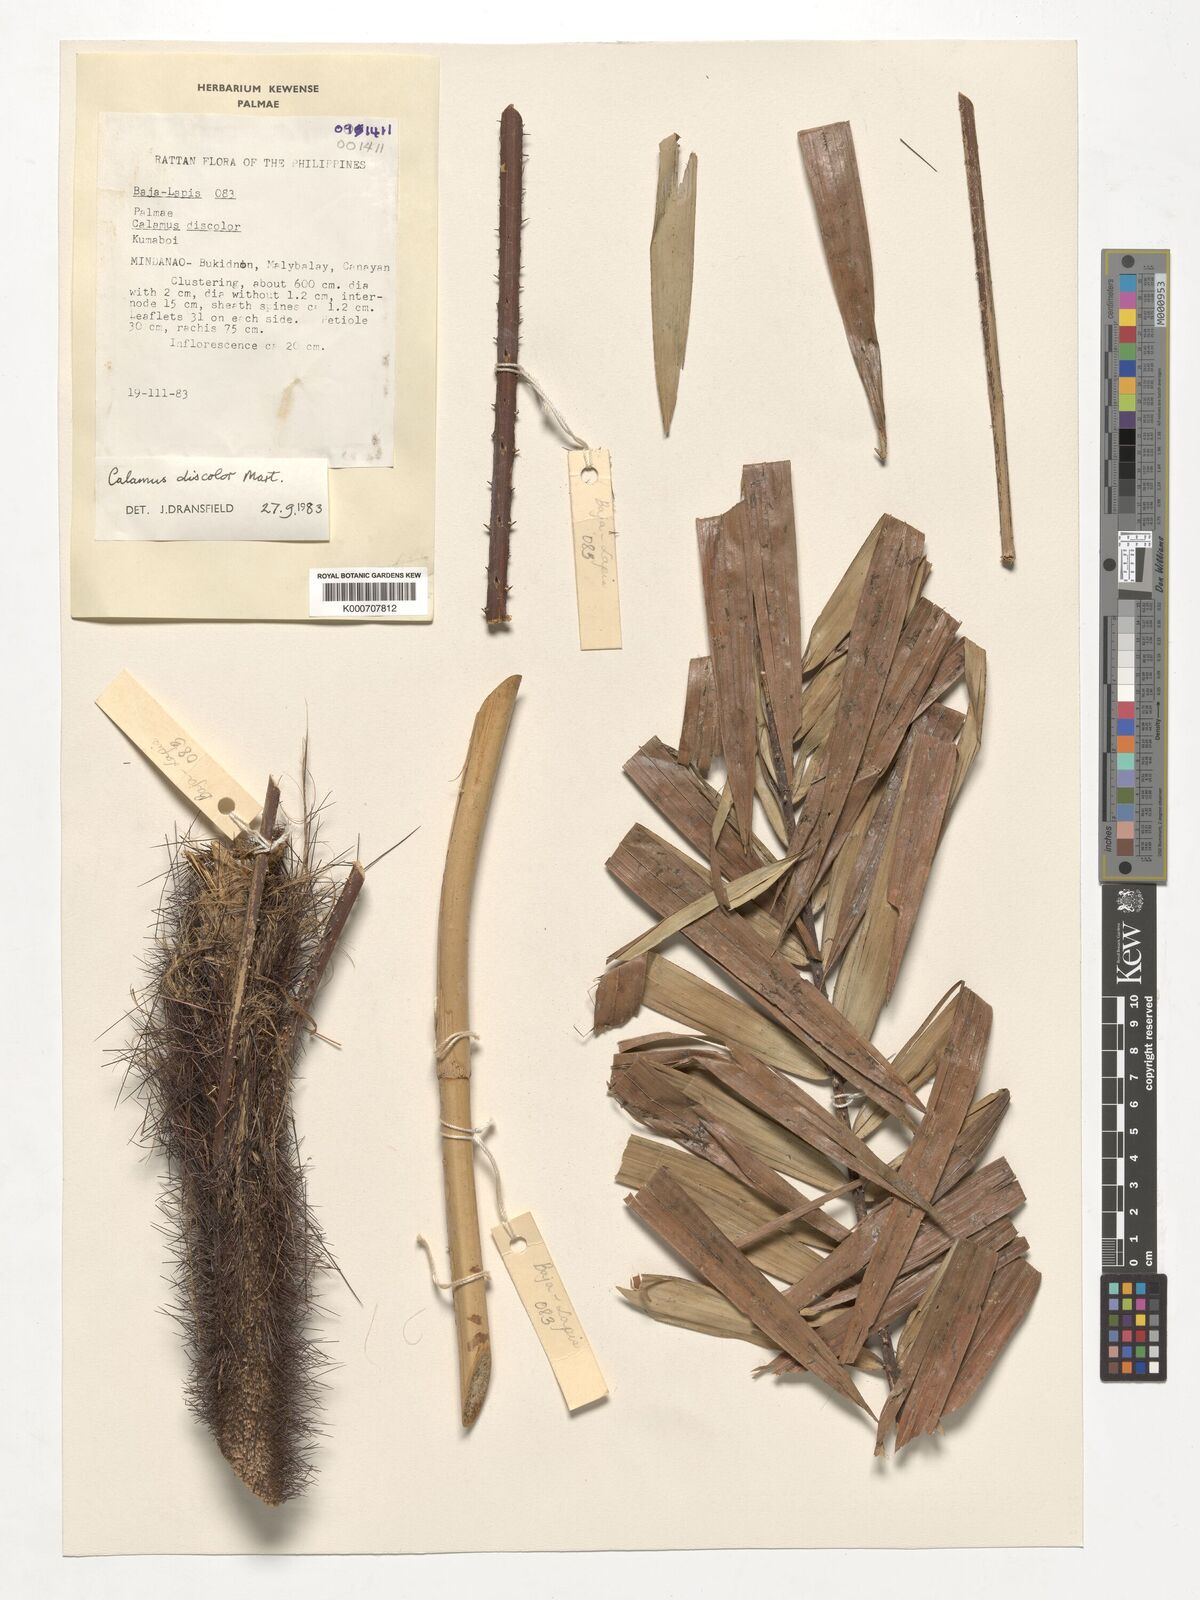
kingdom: Plantae
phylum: Tracheophyta
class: Liliopsida
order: Arecales
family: Arecaceae
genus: Calamus
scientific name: Calamus discolor
